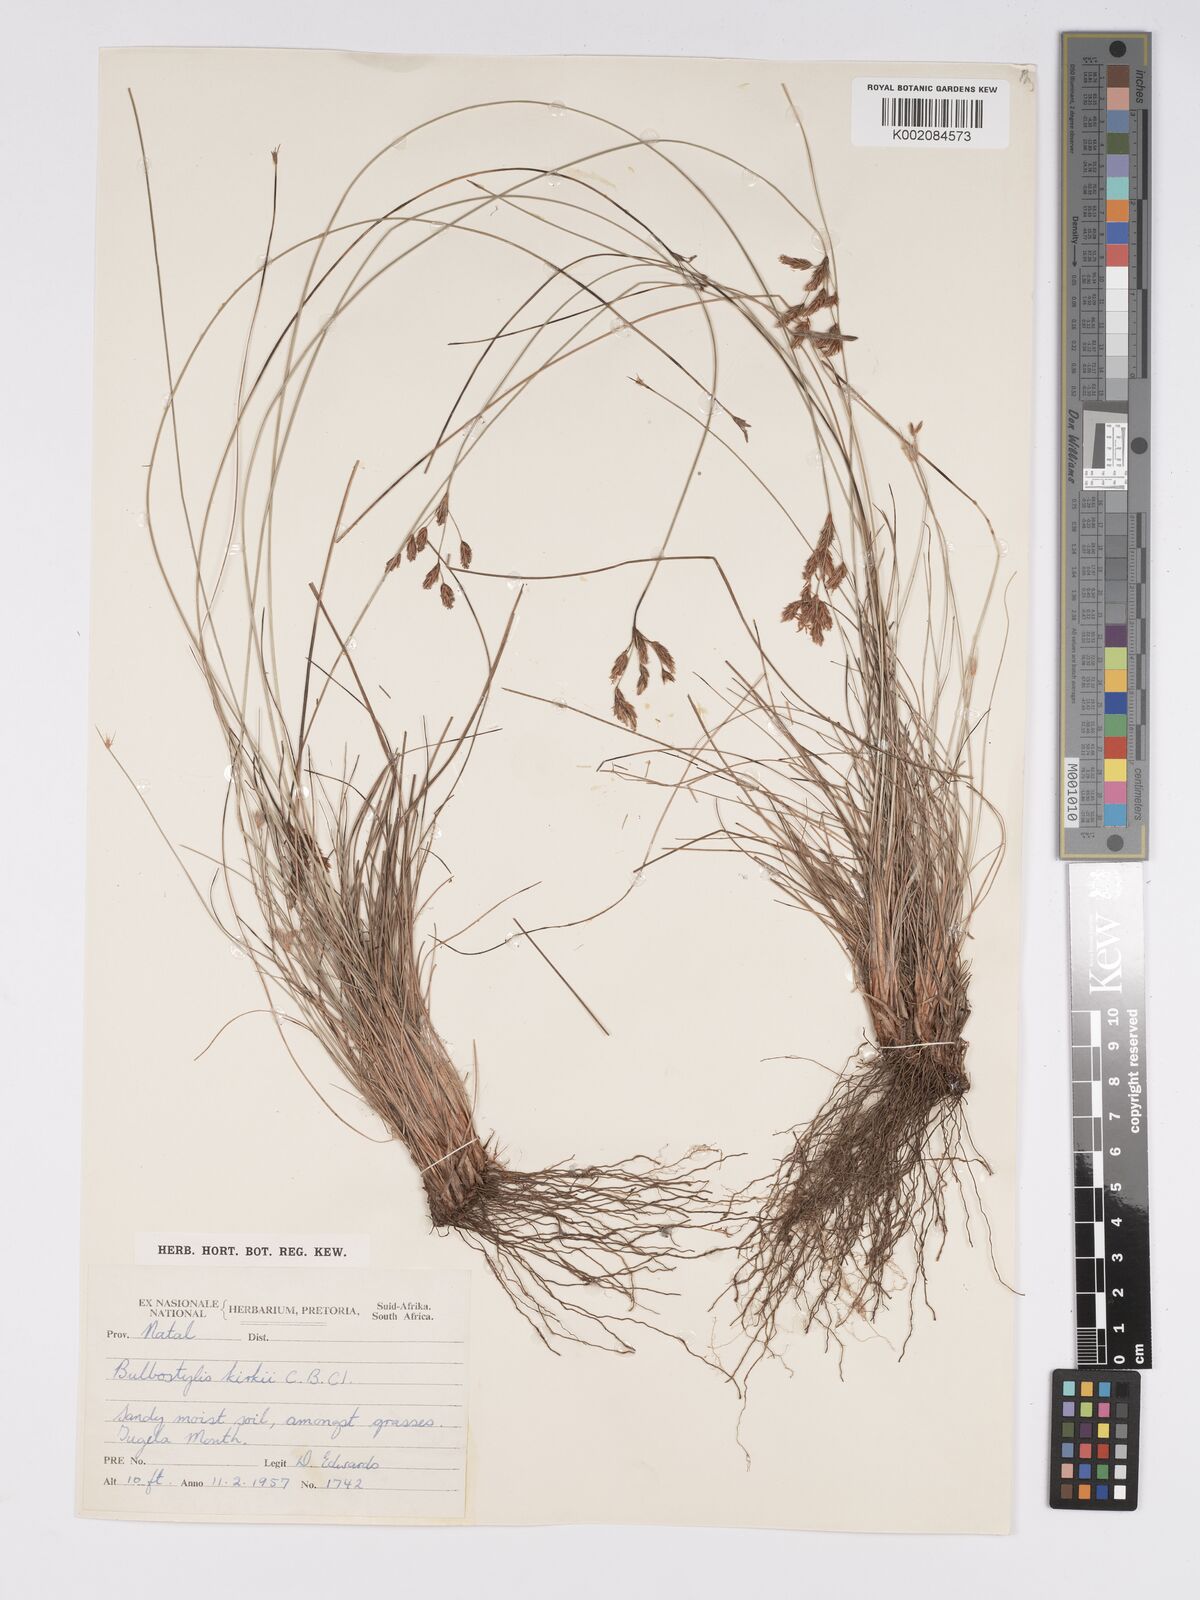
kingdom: Plantae
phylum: Tracheophyta
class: Liliopsida
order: Poales
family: Cyperaceae
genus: Bulbostylis
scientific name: Bulbostylis contexta
